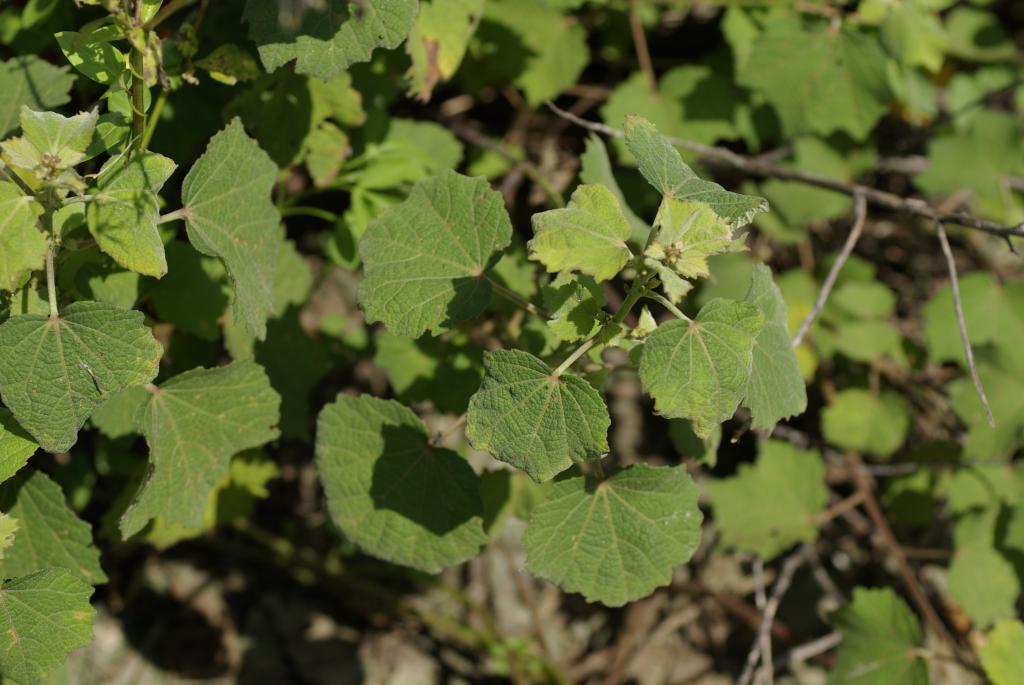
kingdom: Plantae
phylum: Tracheophyta
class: Magnoliopsida
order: Malvales
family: Malvaceae
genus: Urena
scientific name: Urena lobata
